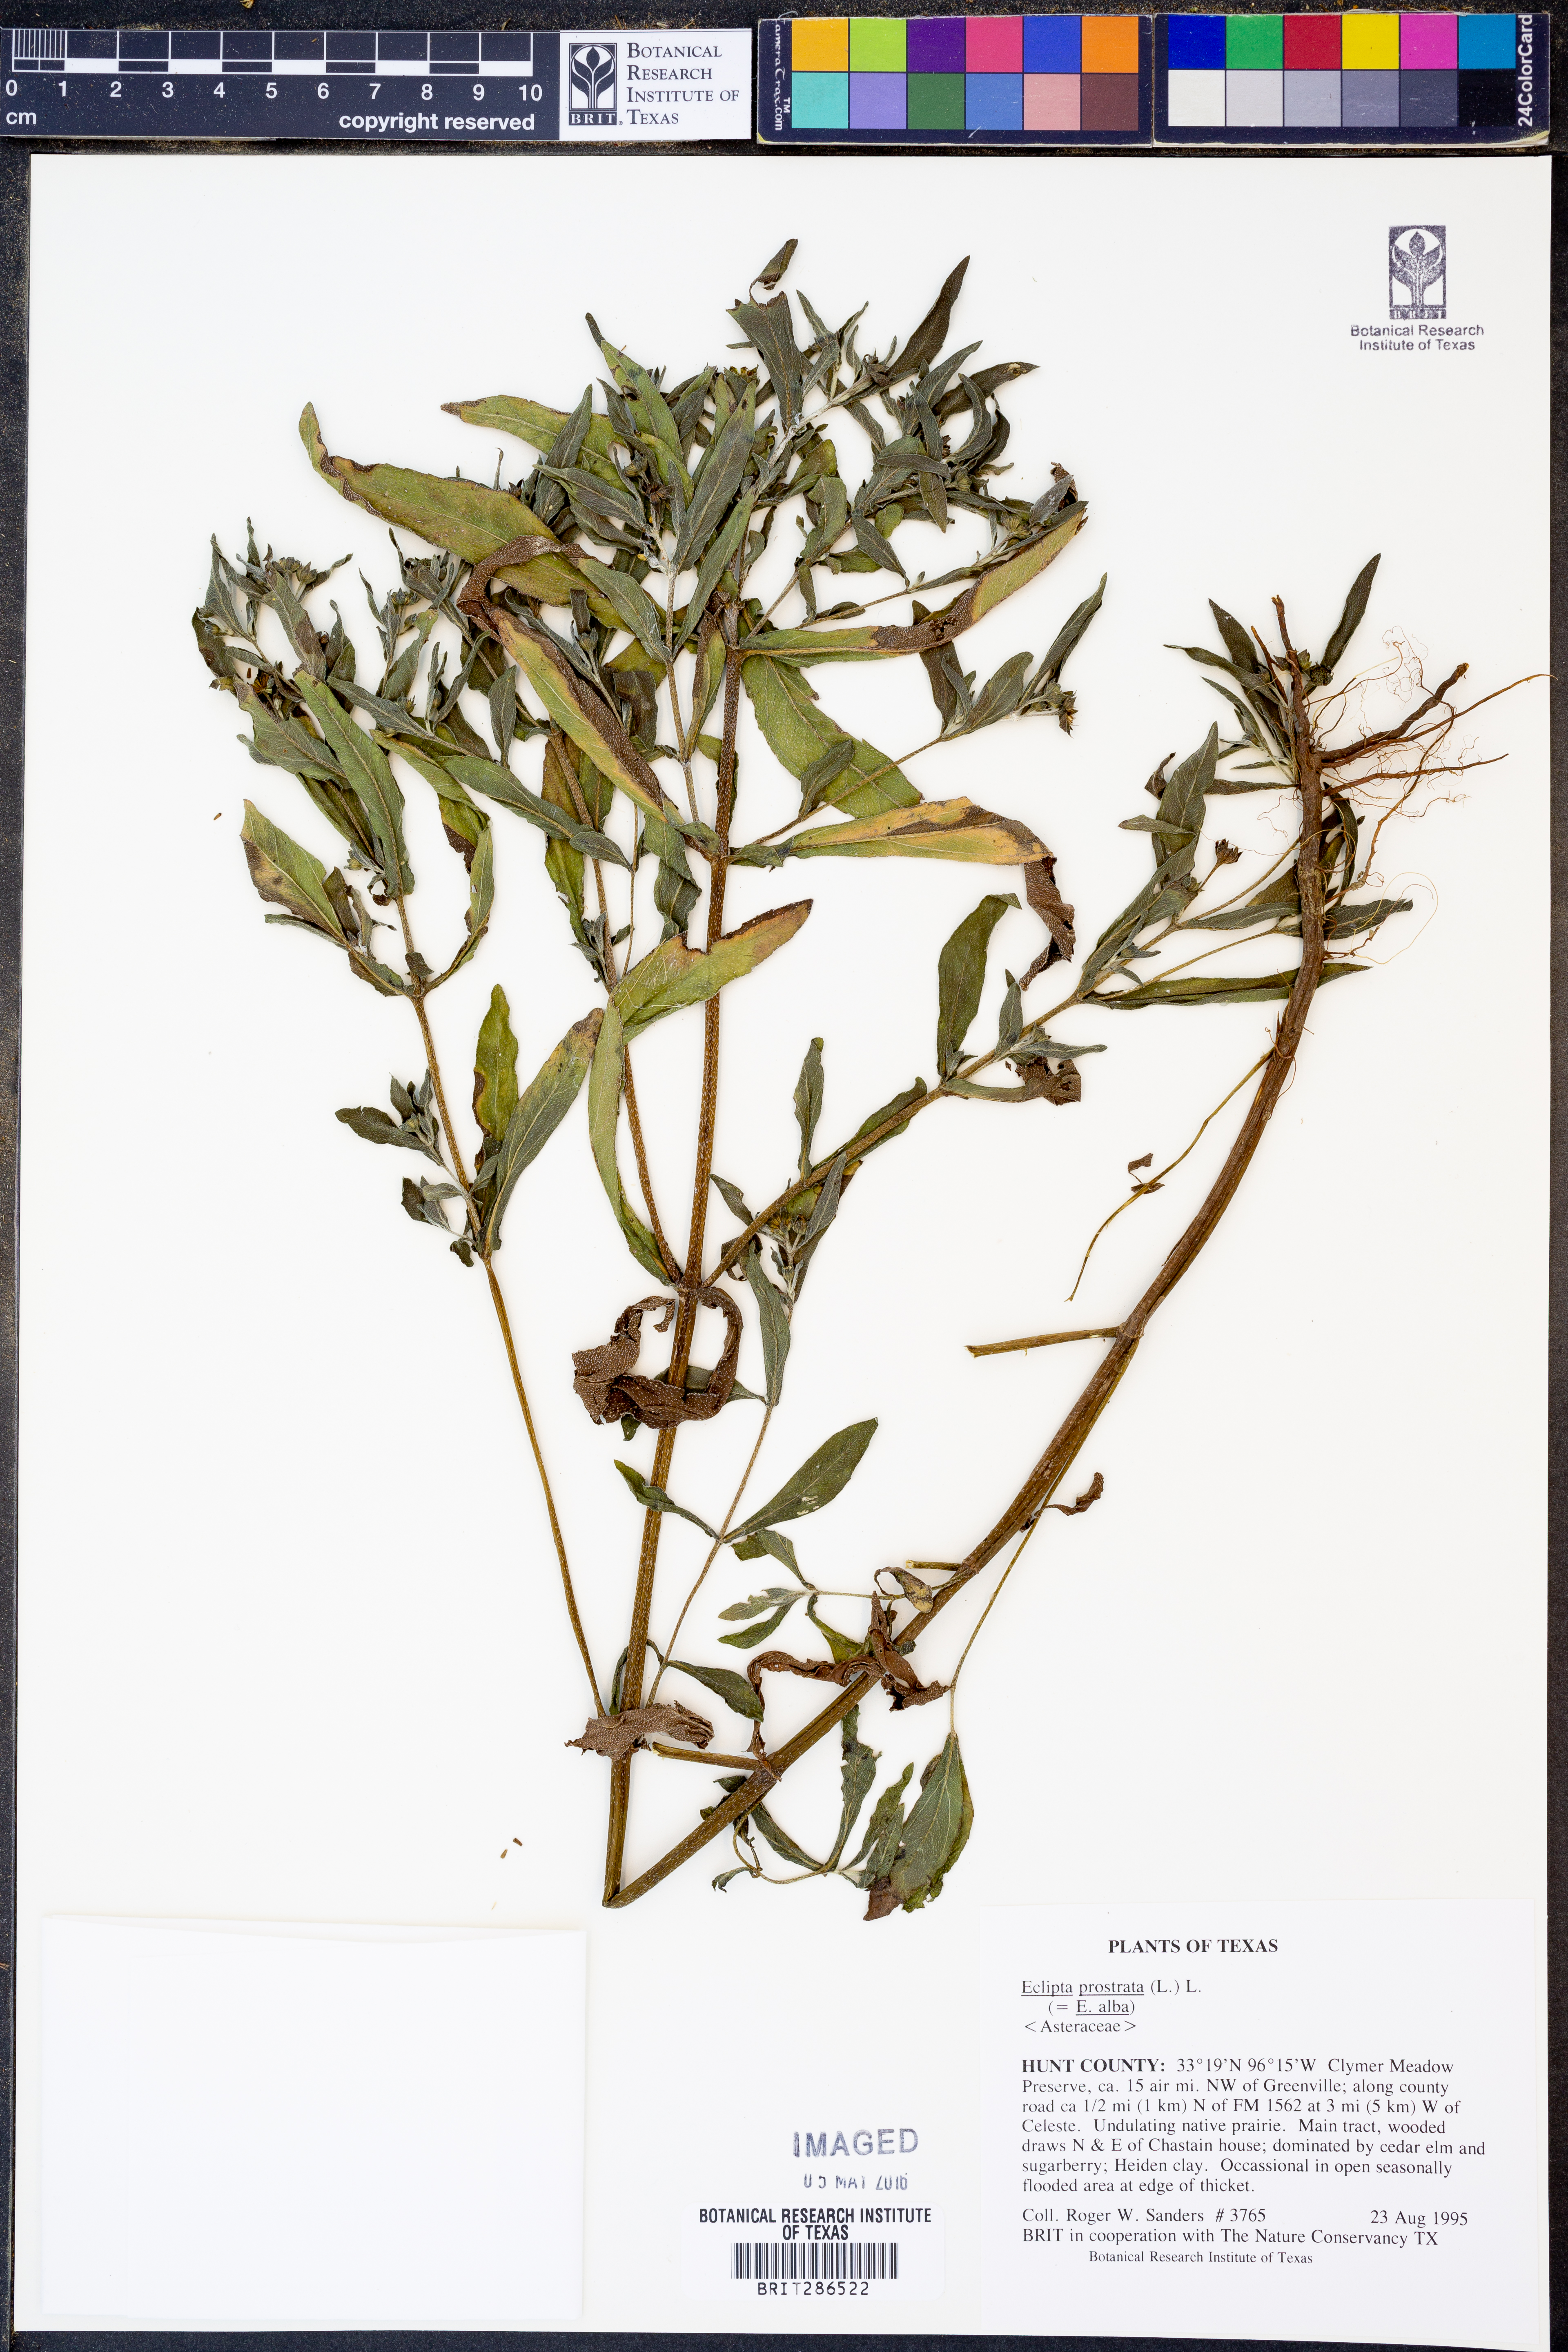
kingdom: Plantae
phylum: Tracheophyta
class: Magnoliopsida
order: Asterales
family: Asteraceae
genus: Eclipta
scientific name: Eclipta prostrata
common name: False daisy
